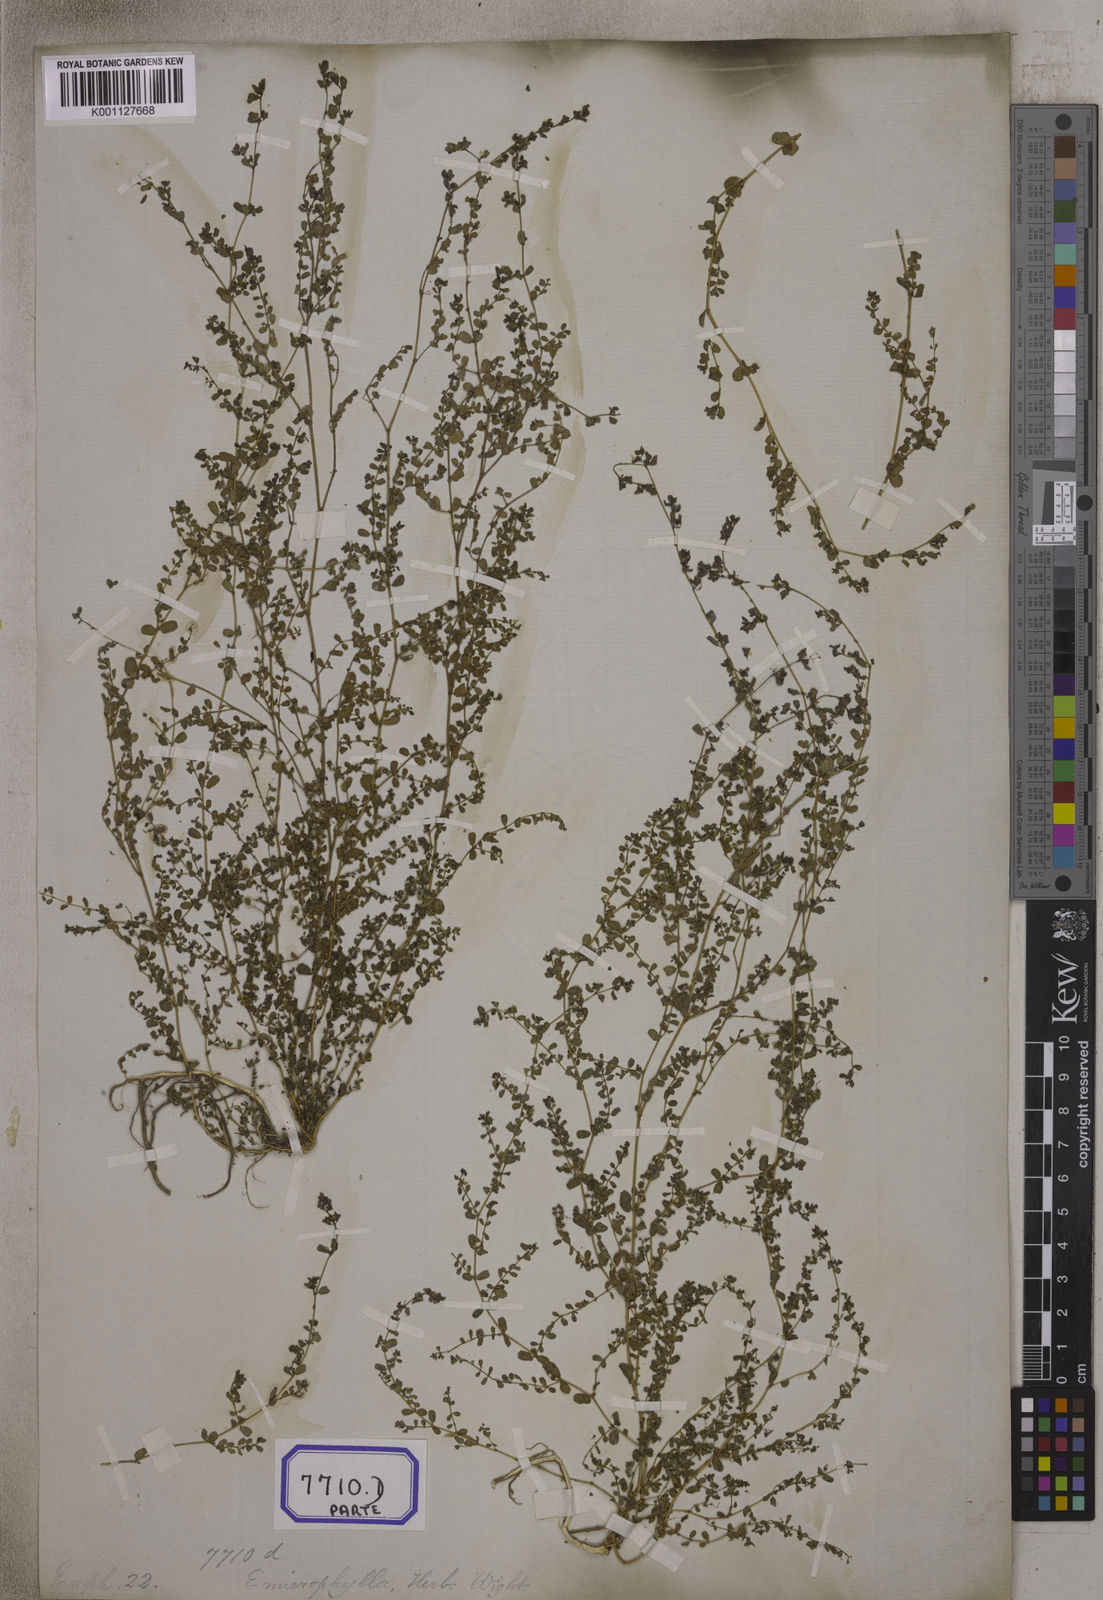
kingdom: Plantae
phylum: Tracheophyta
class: Magnoliopsida
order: Malpighiales
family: Euphorbiaceae
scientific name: Euphorbiaceae
